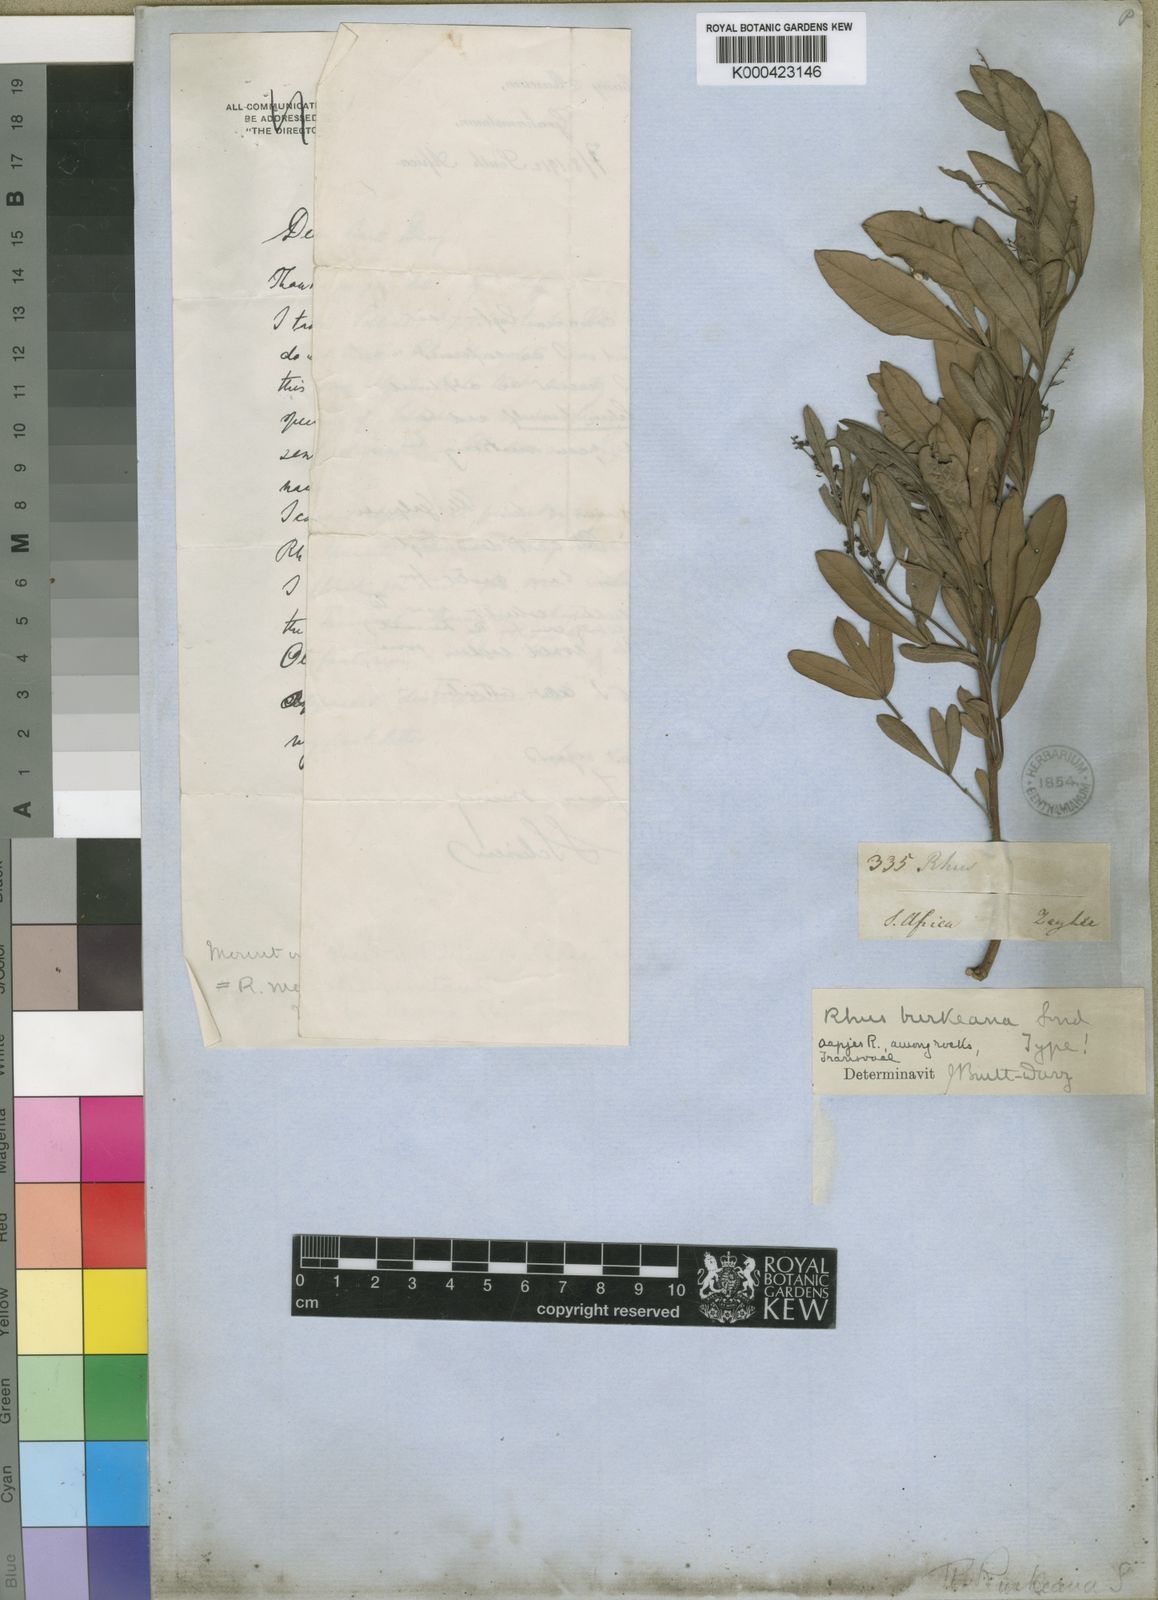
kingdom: Plantae
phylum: Tracheophyta
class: Magnoliopsida
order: Sapindales
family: Anacardiaceae
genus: Searsia
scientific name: Searsia magalismontana
